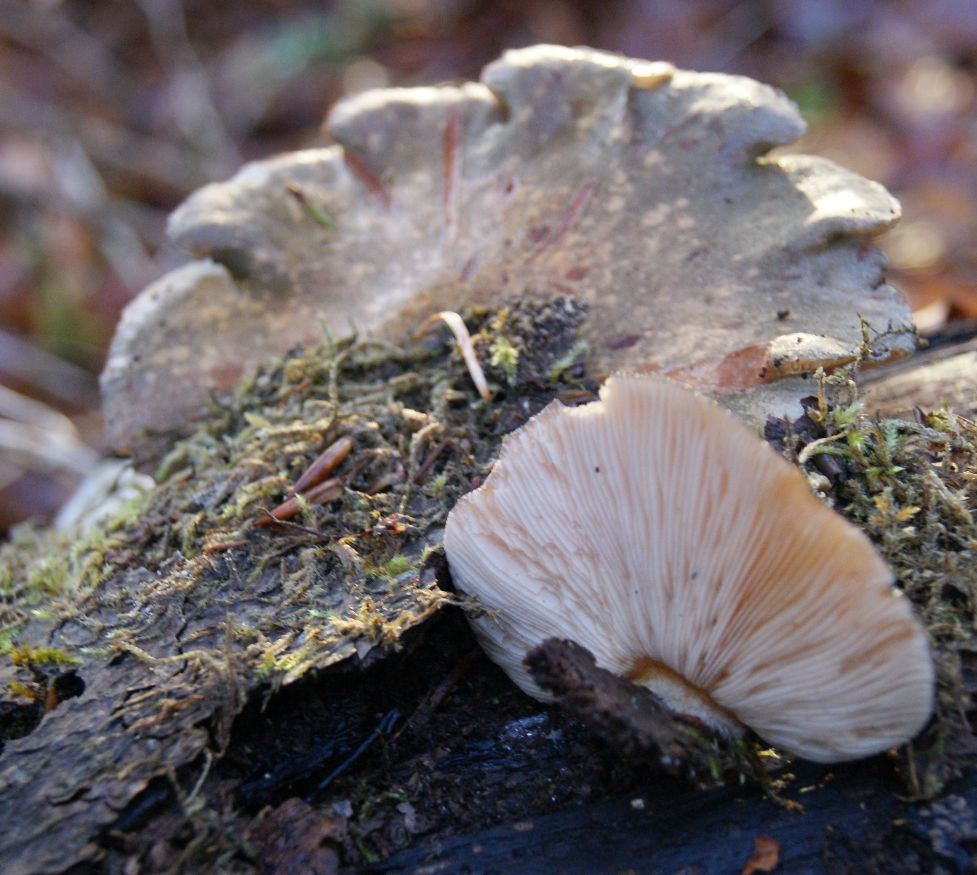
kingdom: Fungi
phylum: Basidiomycota
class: Agaricomycetes
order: Agaricales
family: Sarcomyxaceae
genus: Sarcomyxa
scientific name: Sarcomyxa serotina
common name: gummihat
